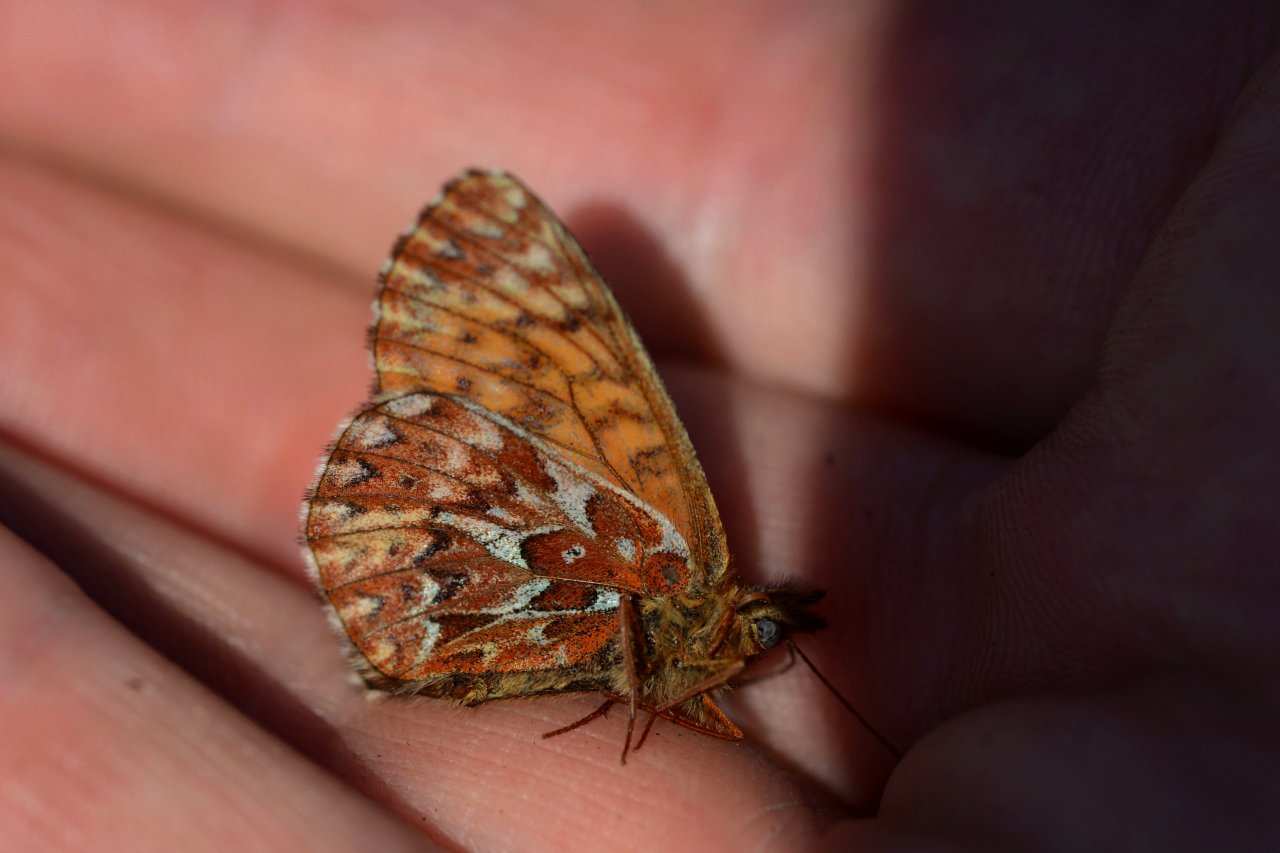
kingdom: Animalia
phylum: Arthropoda
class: Insecta
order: Lepidoptera
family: Nymphalidae
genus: Boloria
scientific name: Boloria freija
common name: Freija Fritillary
